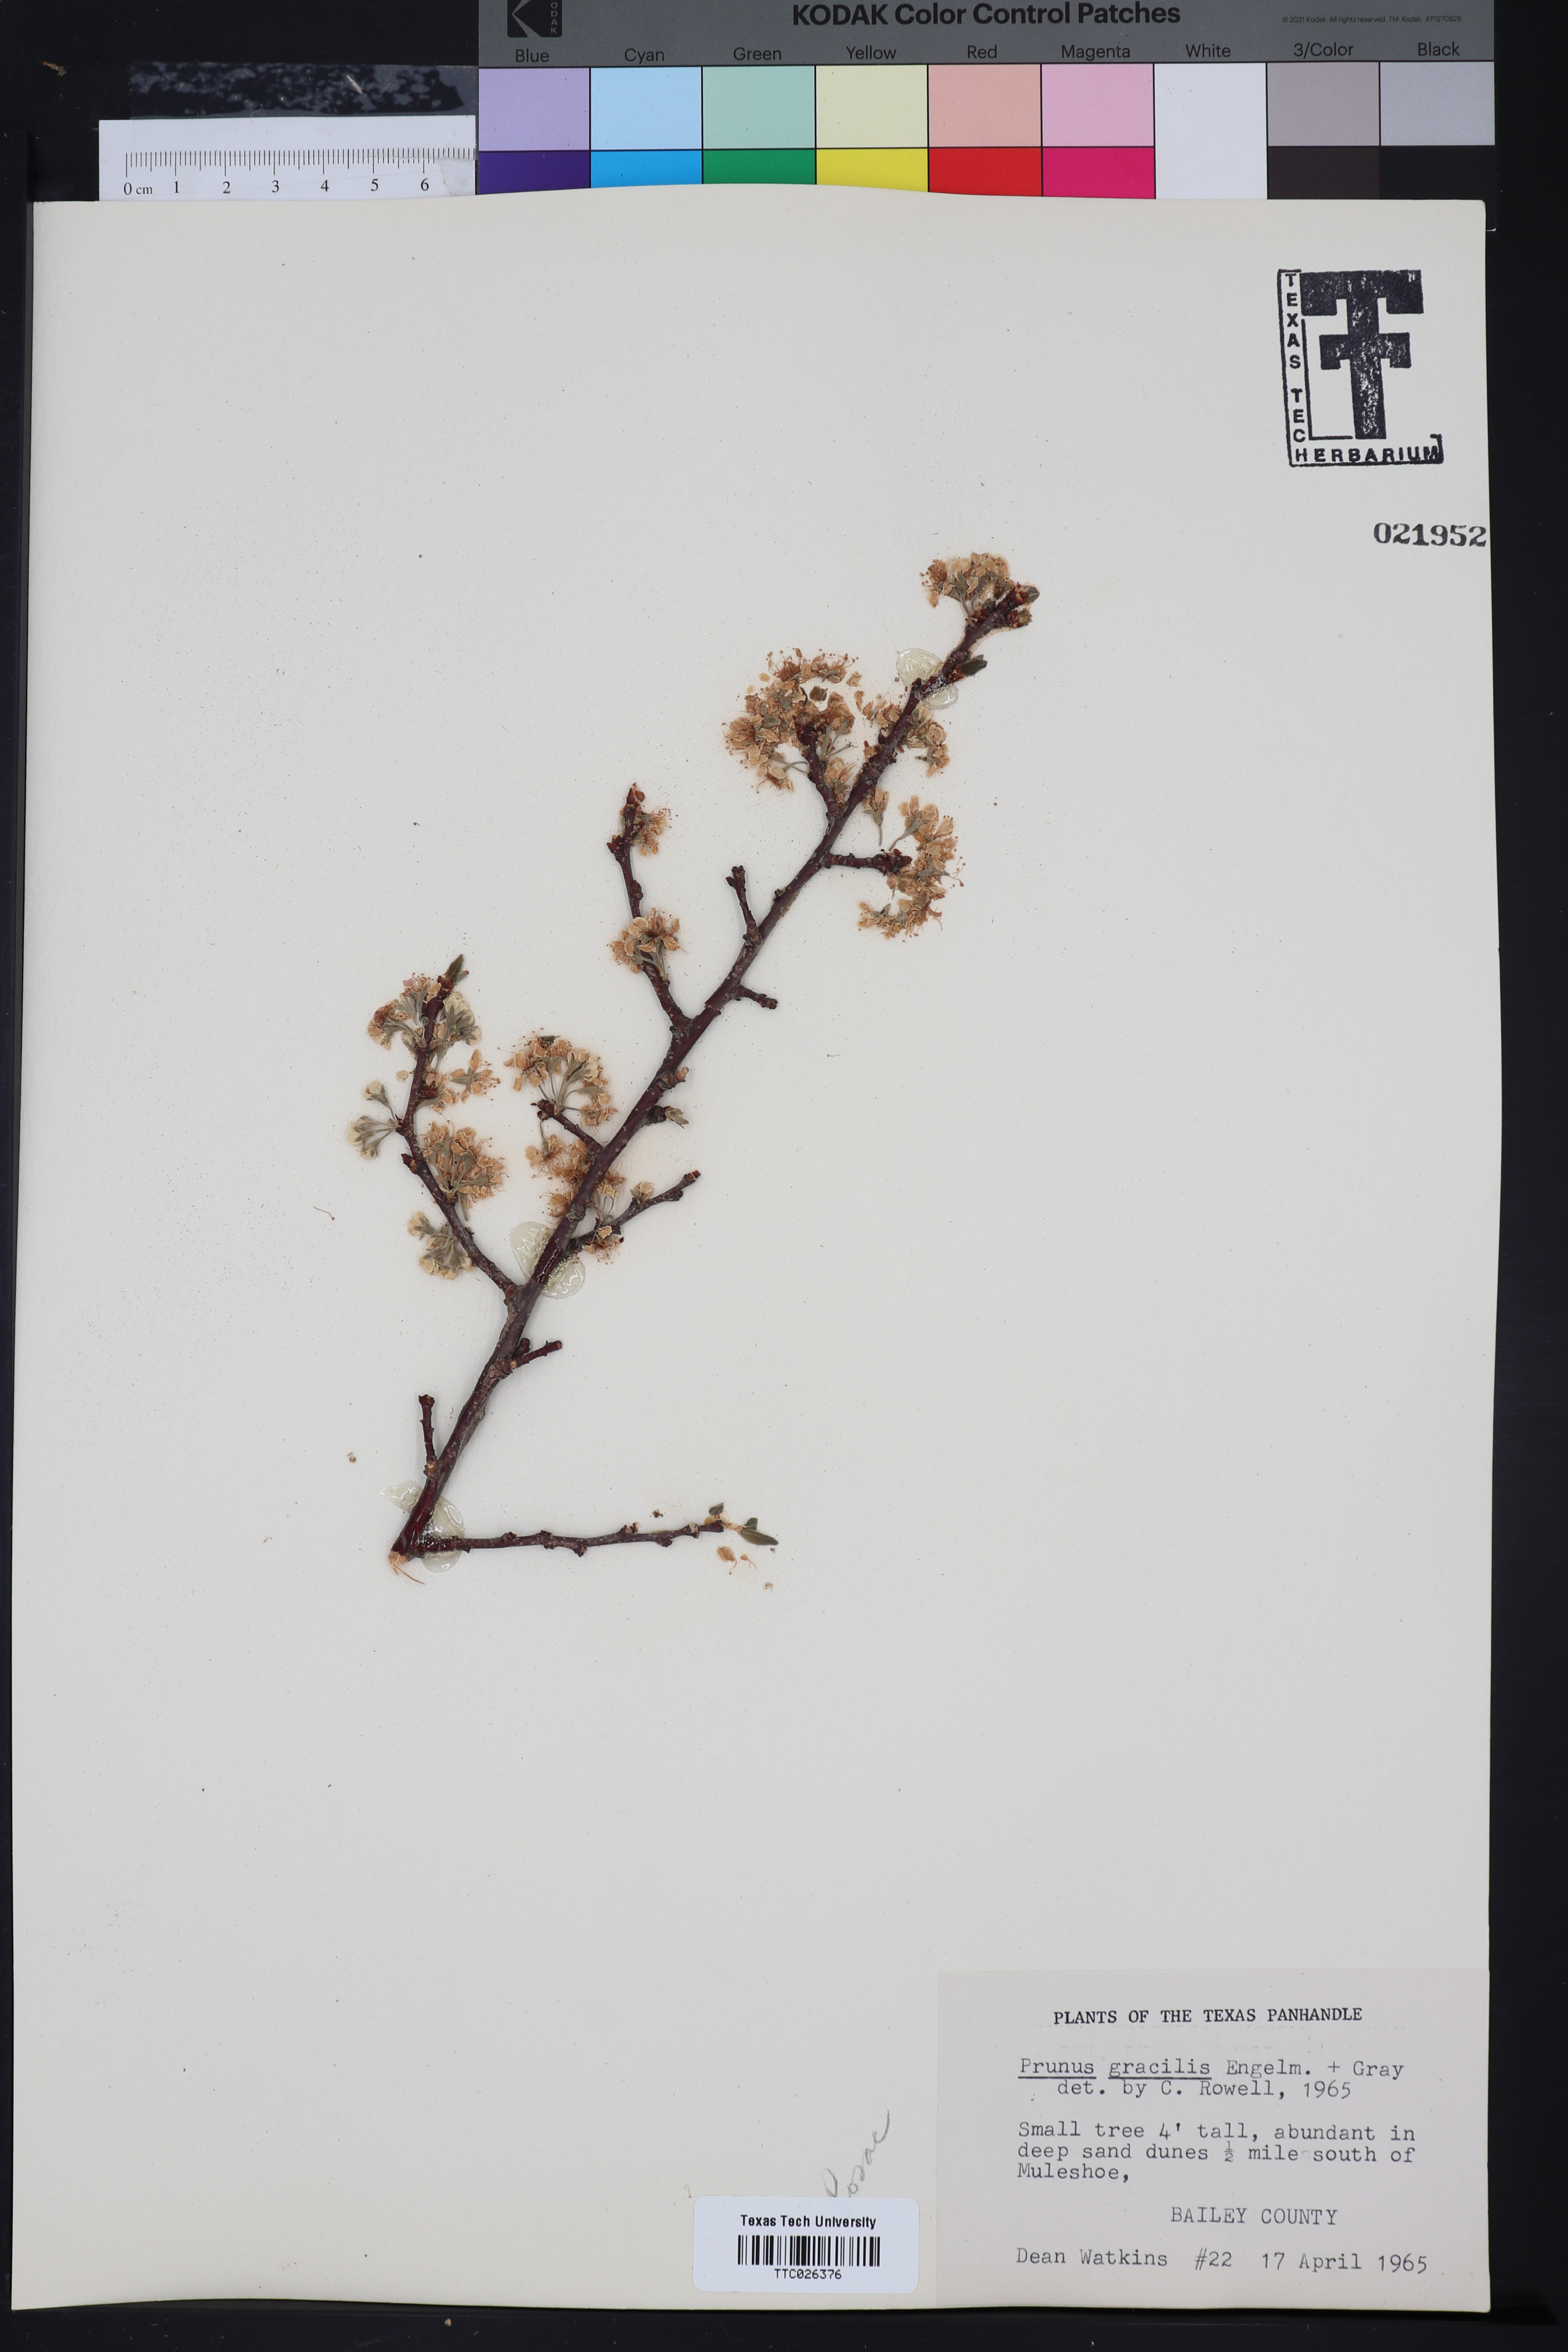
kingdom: Plantae
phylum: Tracheophyta
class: Magnoliopsida
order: Rosales
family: Rosaceae
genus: Prunus
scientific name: Prunus gracilis
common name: Oklahoma plum
